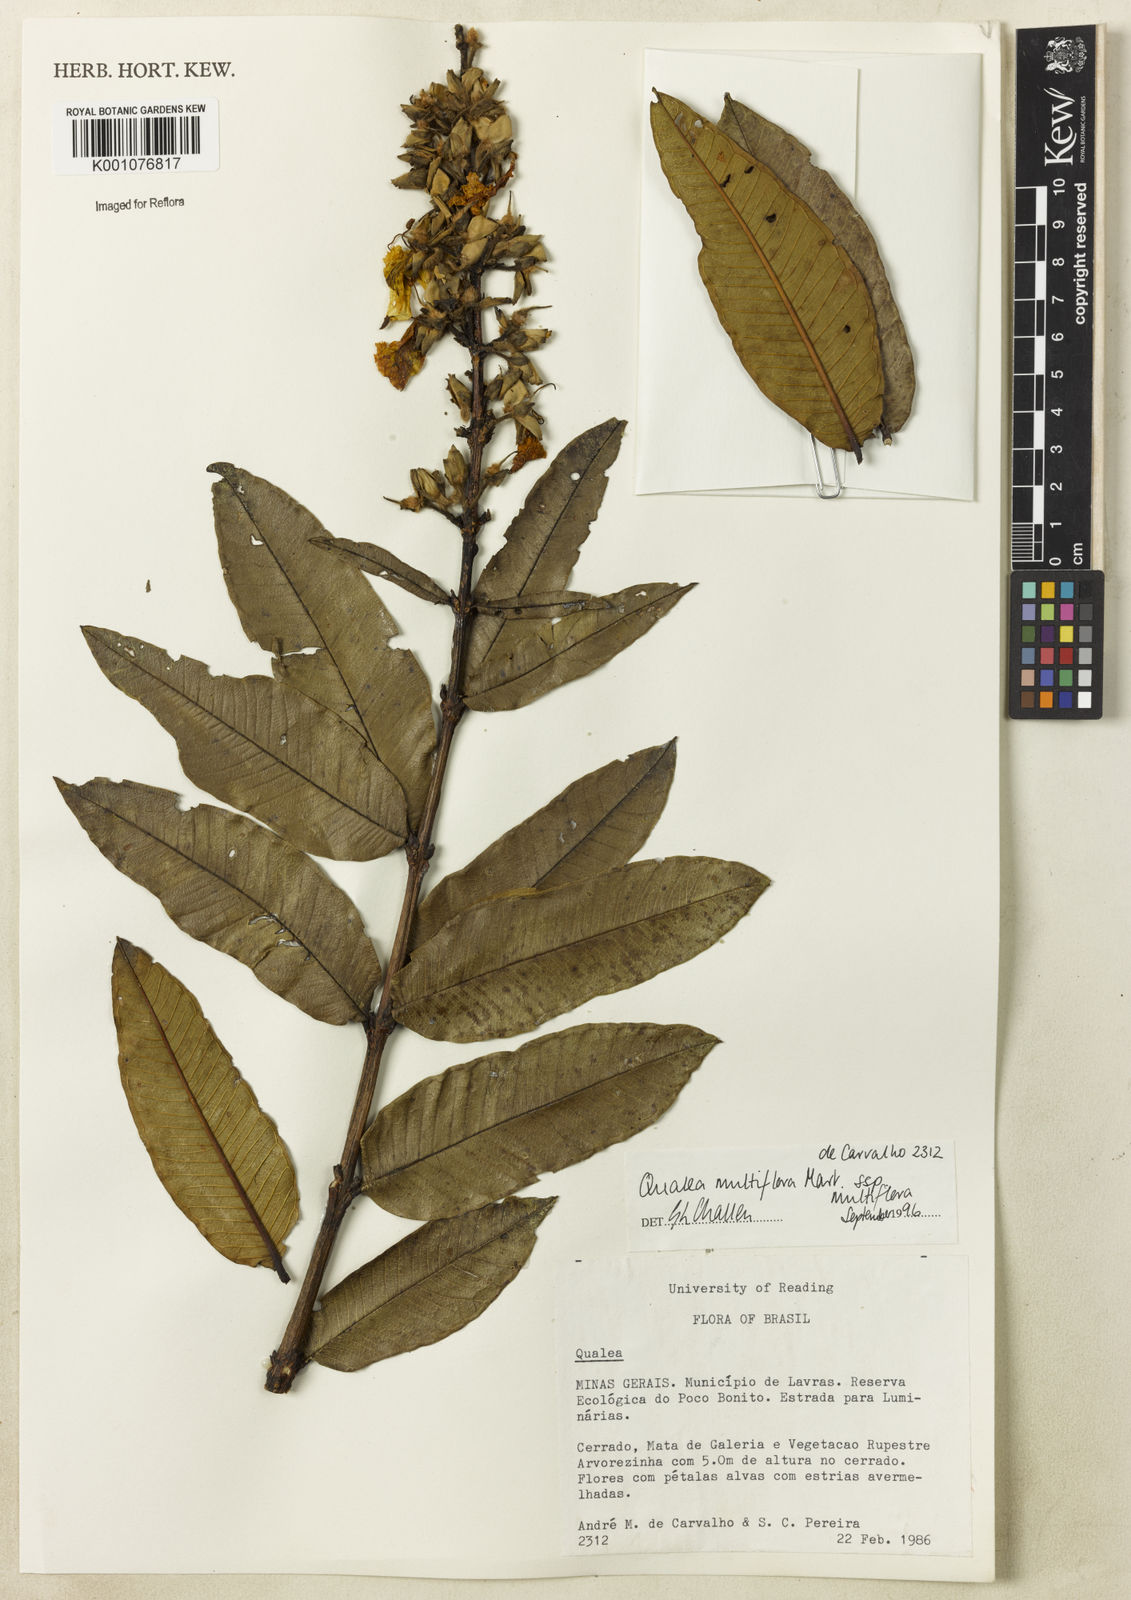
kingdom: Plantae
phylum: Tracheophyta
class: Magnoliopsida
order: Myrtales
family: Vochysiaceae
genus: Qualea
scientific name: Qualea multiflora
